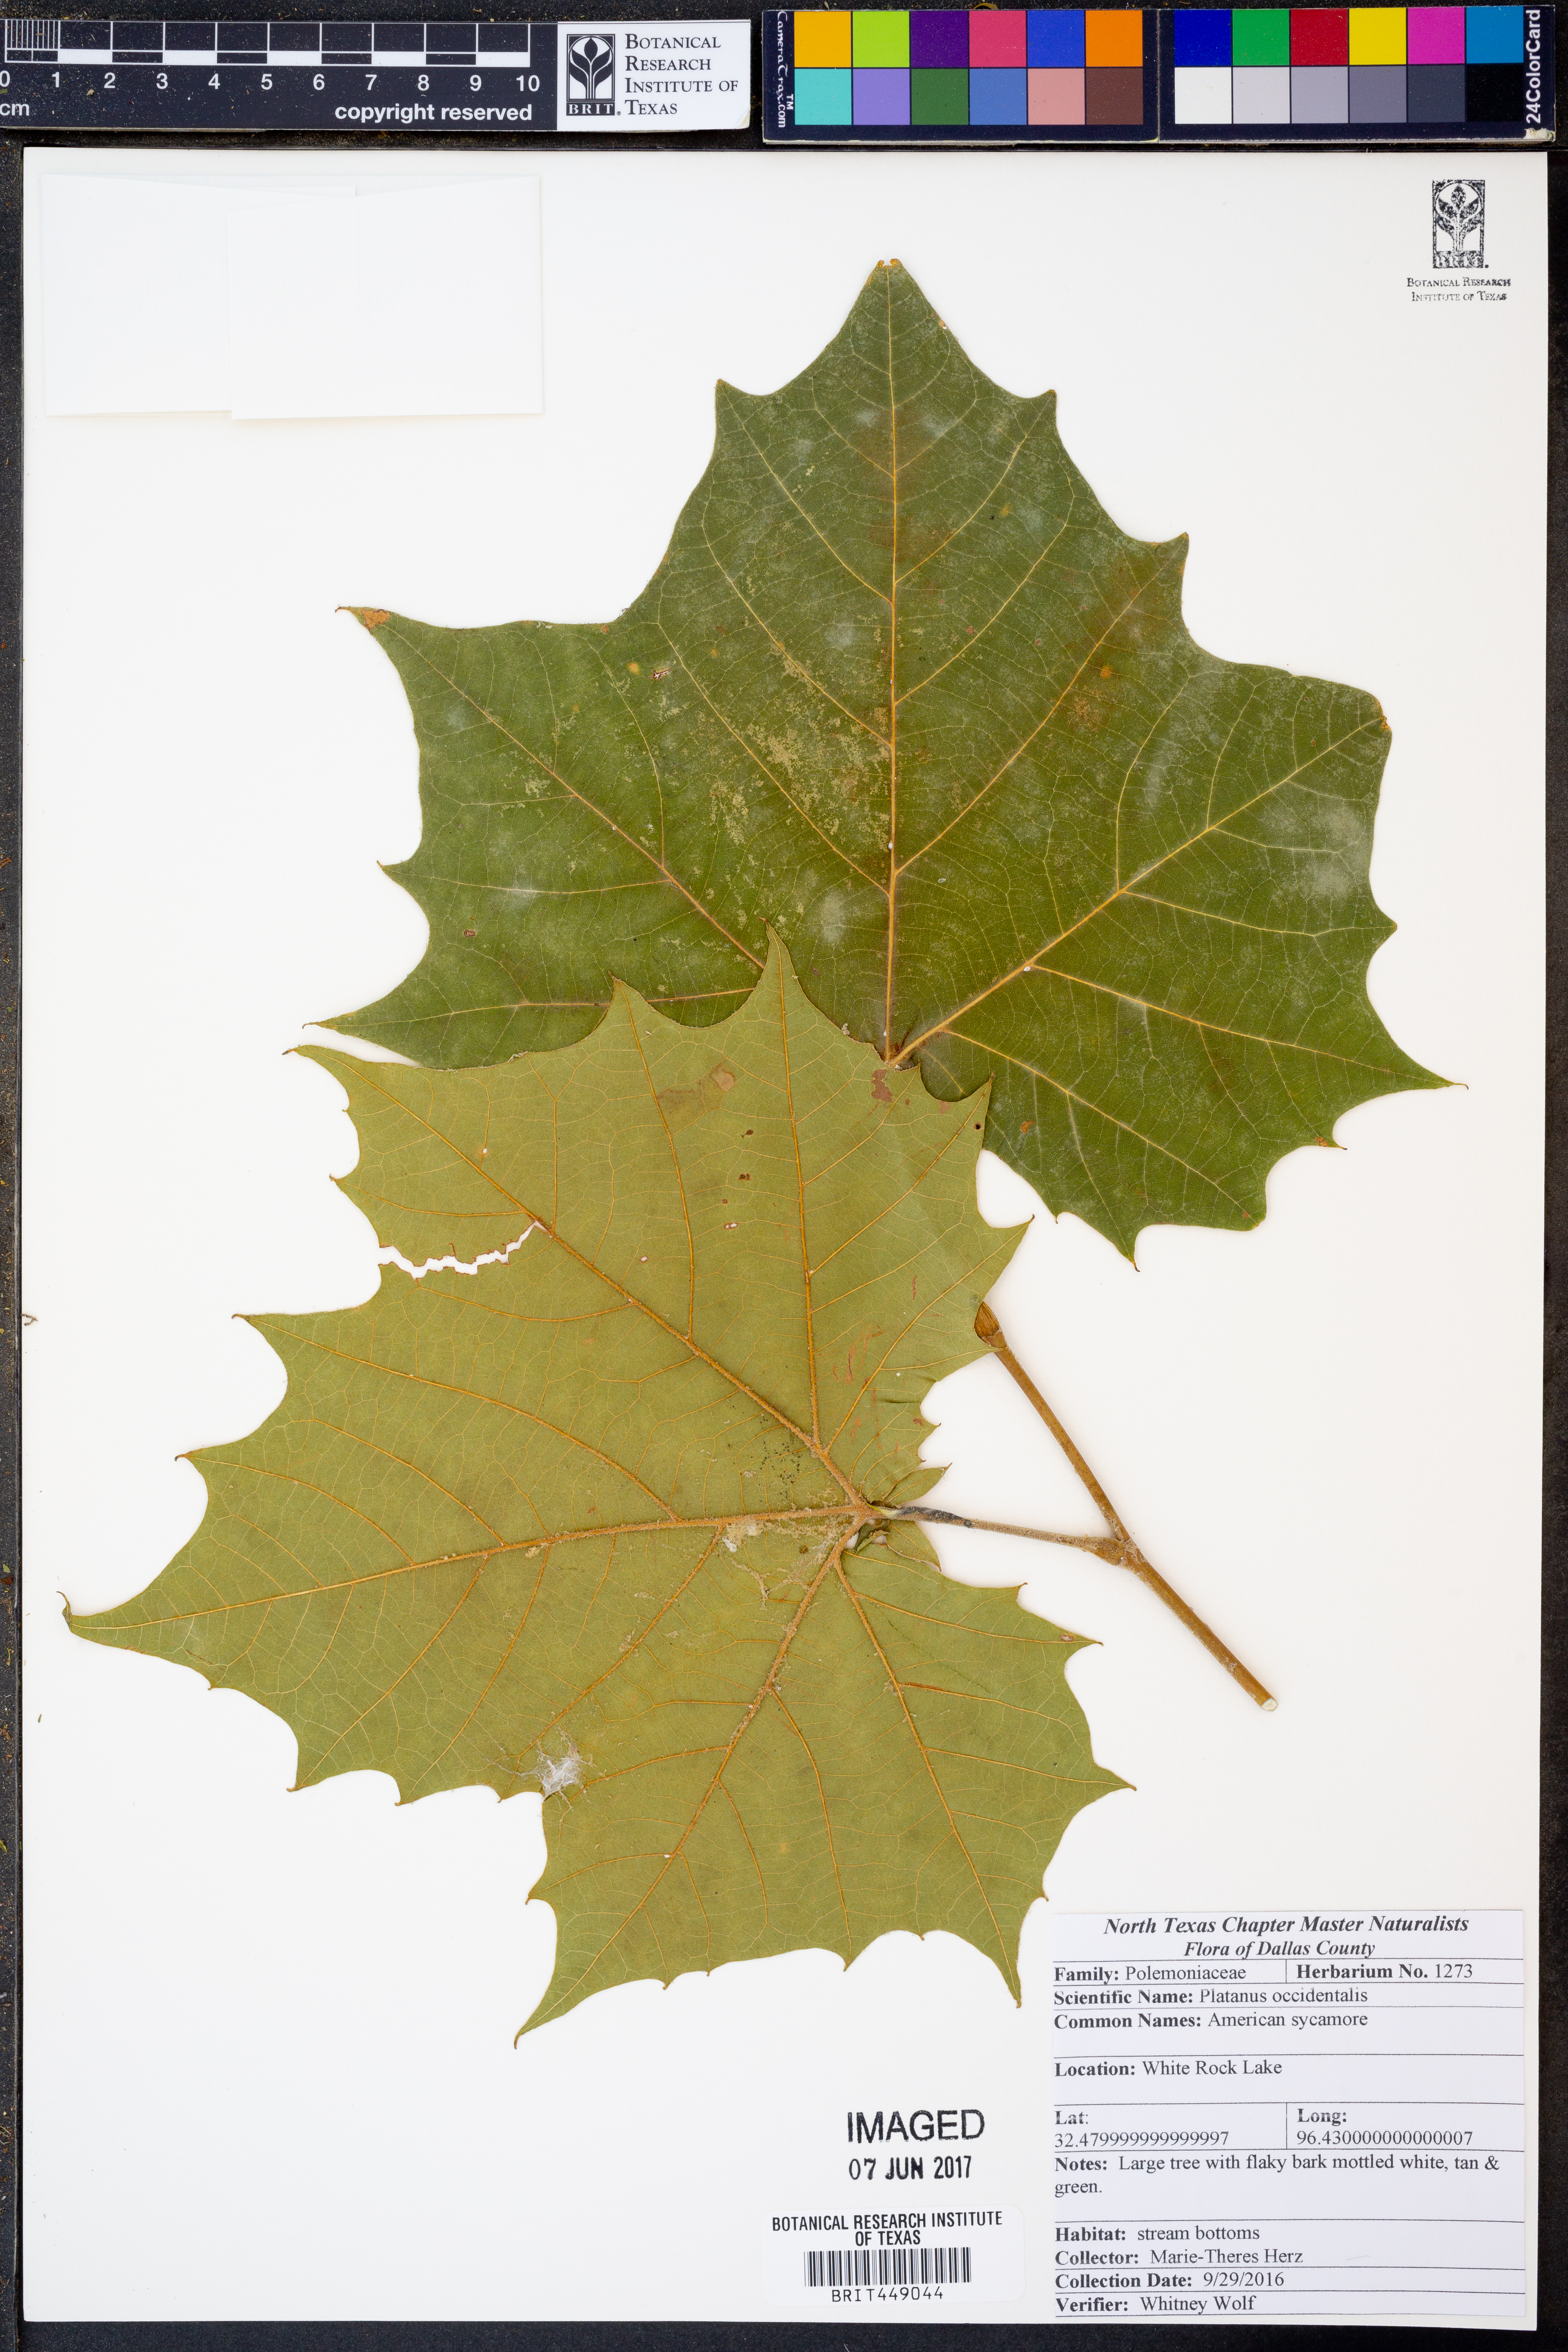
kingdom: Plantae
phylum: Tracheophyta
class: Magnoliopsida
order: Proteales
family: Platanaceae
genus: Platanus
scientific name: Platanus occidentalis
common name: American sycamore
